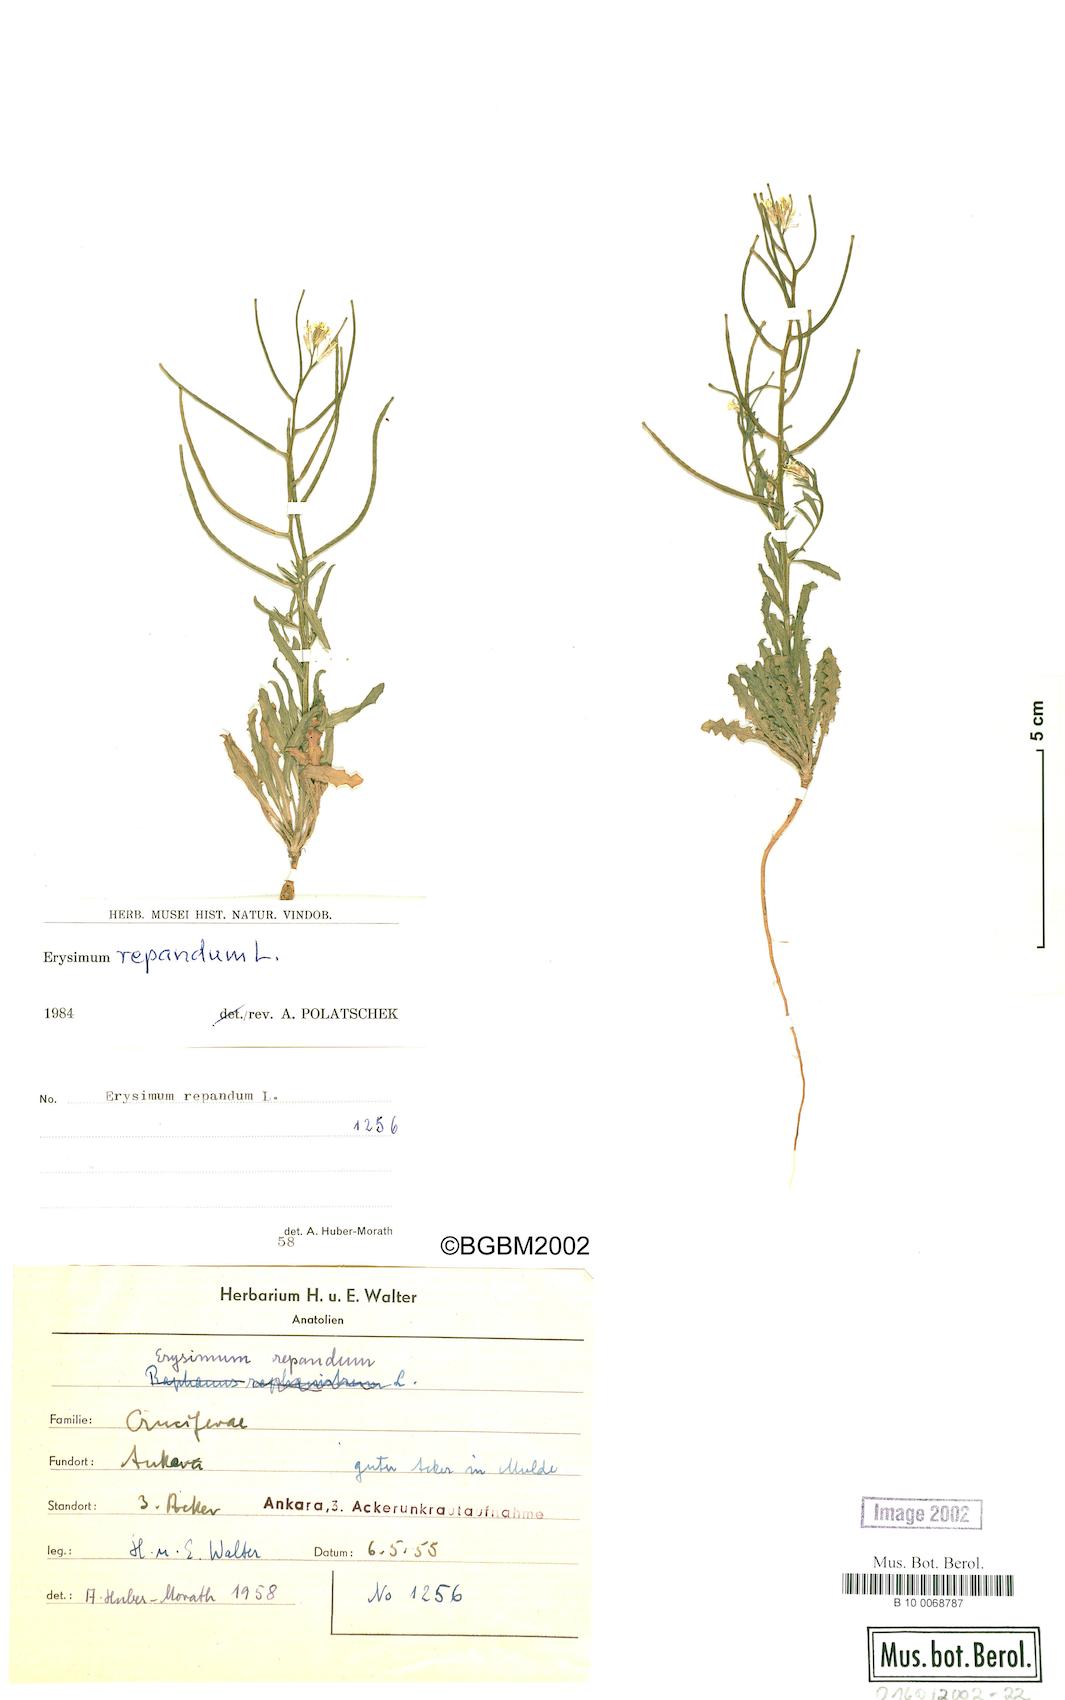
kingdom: Plantae
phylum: Tracheophyta
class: Magnoliopsida
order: Brassicales
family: Brassicaceae
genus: Erysimum
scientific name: Erysimum repandum
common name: Spreading wallflower
